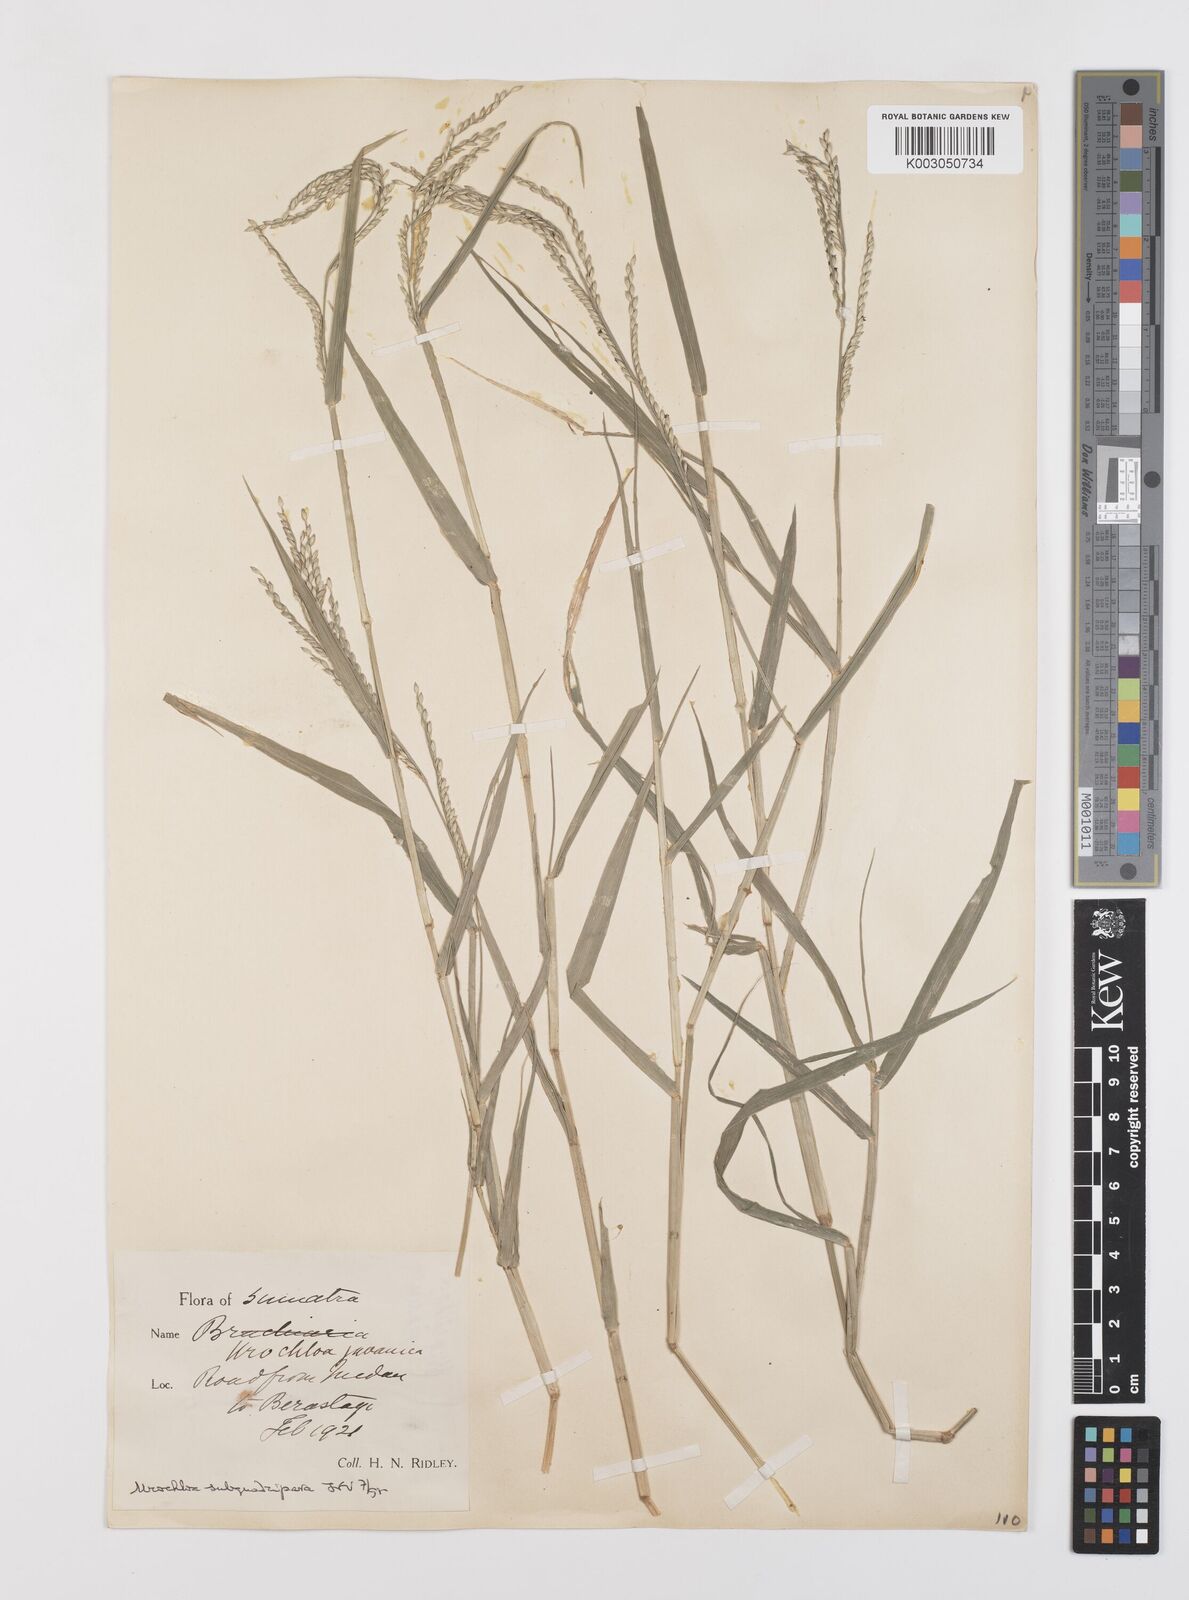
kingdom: Plantae
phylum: Tracheophyta
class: Liliopsida
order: Poales
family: Poaceae
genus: Urochloa
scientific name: Urochloa subquadripara
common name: Armgrass millet
